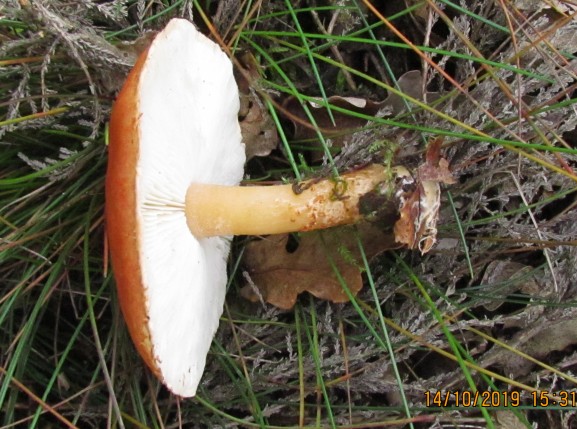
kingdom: Fungi
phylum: Basidiomycota
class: Agaricomycetes
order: Agaricales
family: Agaricaceae
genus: Cystodermella
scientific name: Cystodermella
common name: grynhat
